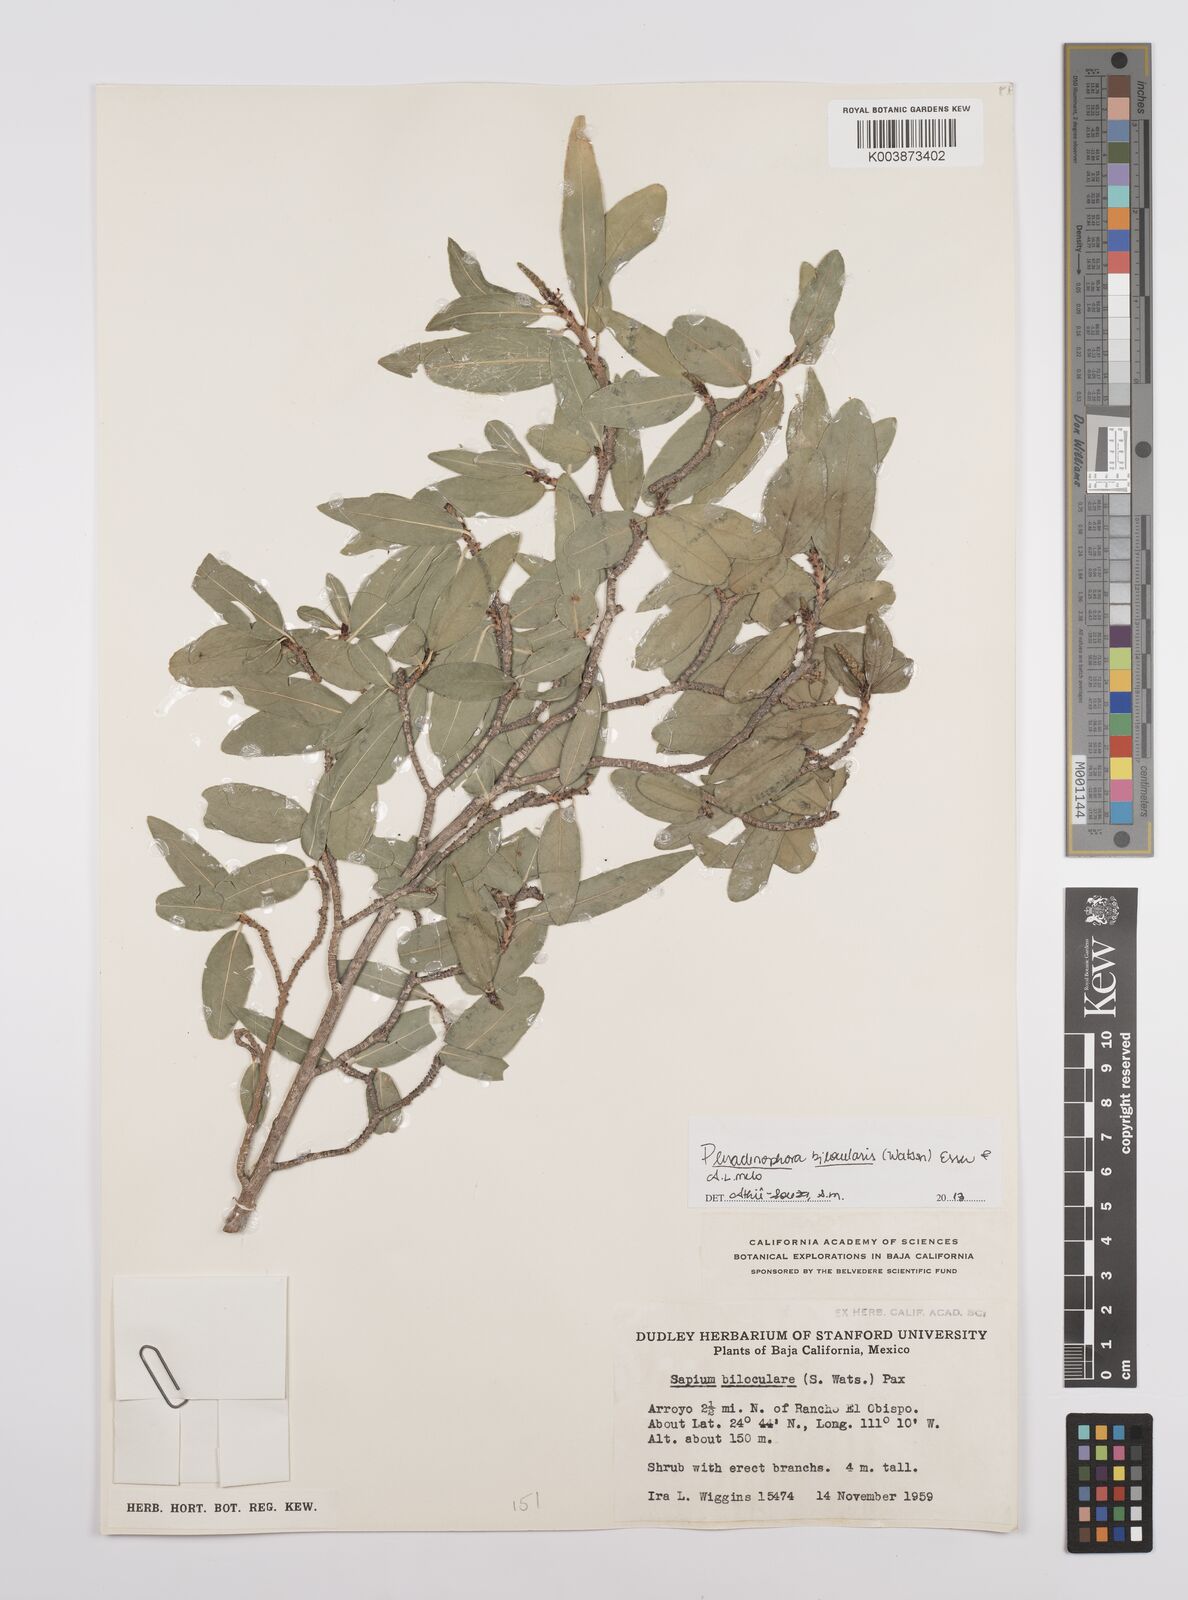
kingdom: Plantae
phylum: Tracheophyta
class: Magnoliopsida
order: Malpighiales
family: Euphorbiaceae
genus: Pleradenophora
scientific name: Pleradenophora bilocularis
